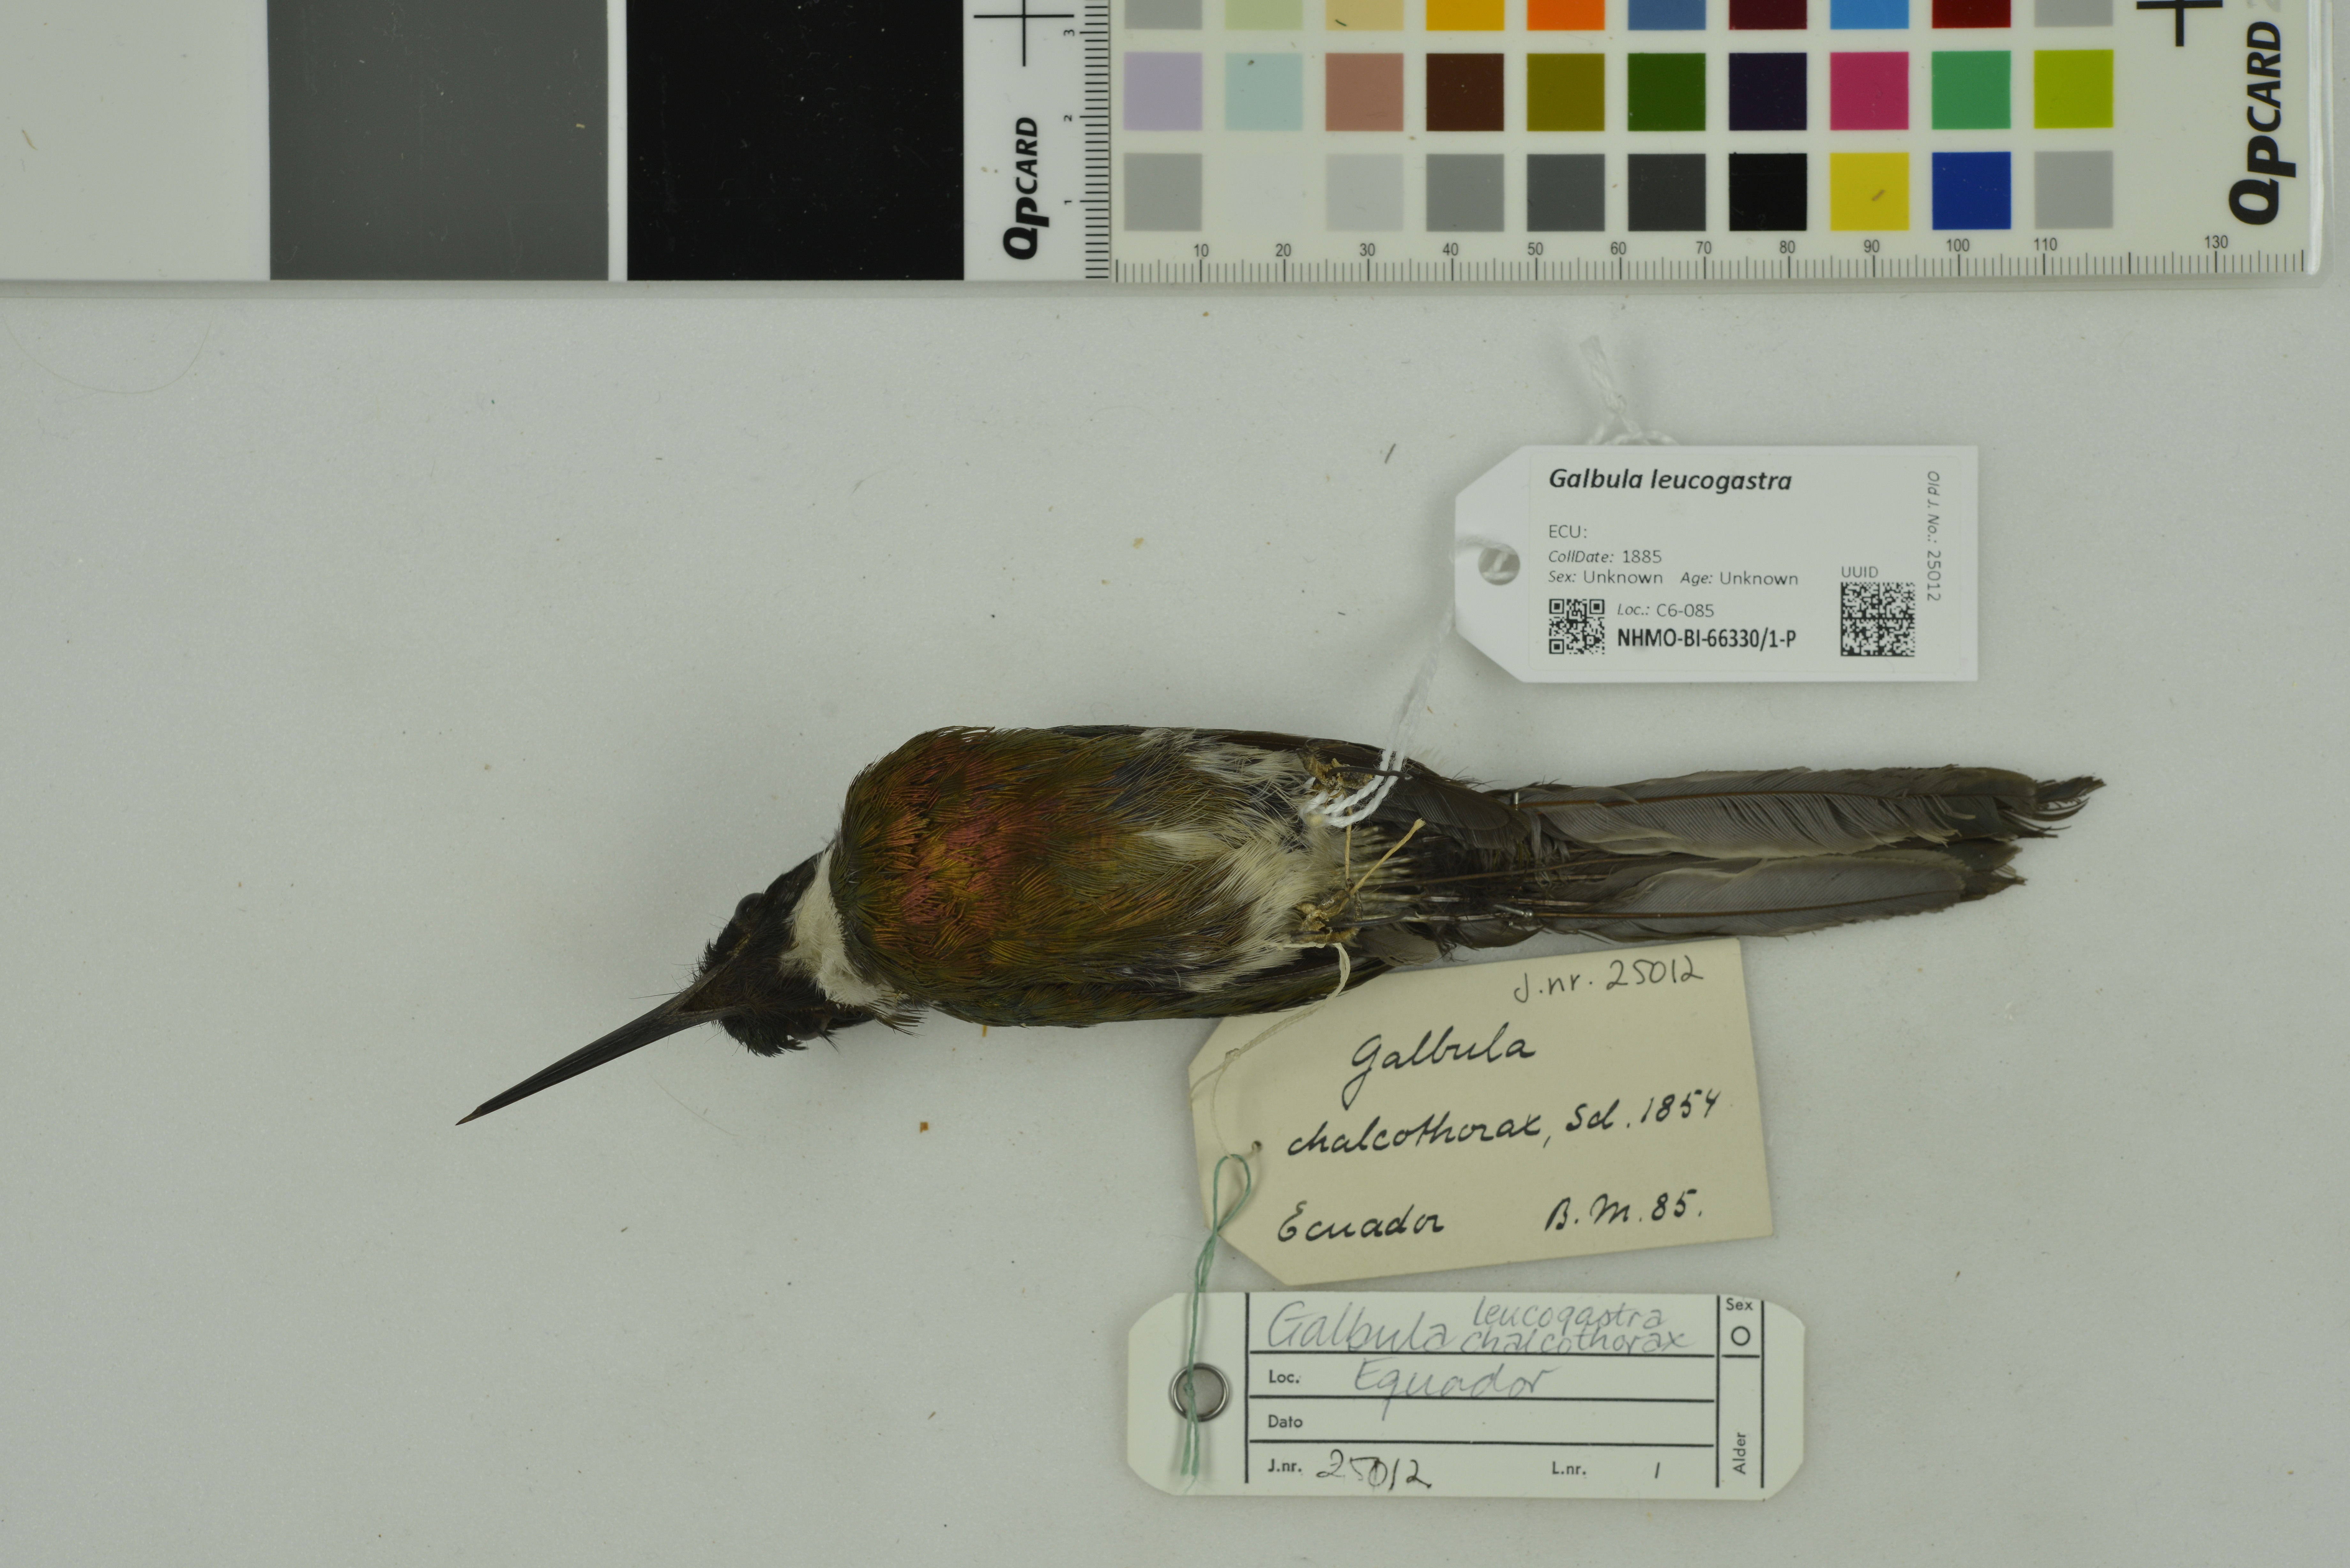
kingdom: Animalia
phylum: Chordata
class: Aves
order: Piciformes
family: Galbulidae
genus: Galbula
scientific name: Galbula leucogastra
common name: Bronzy jacamar
